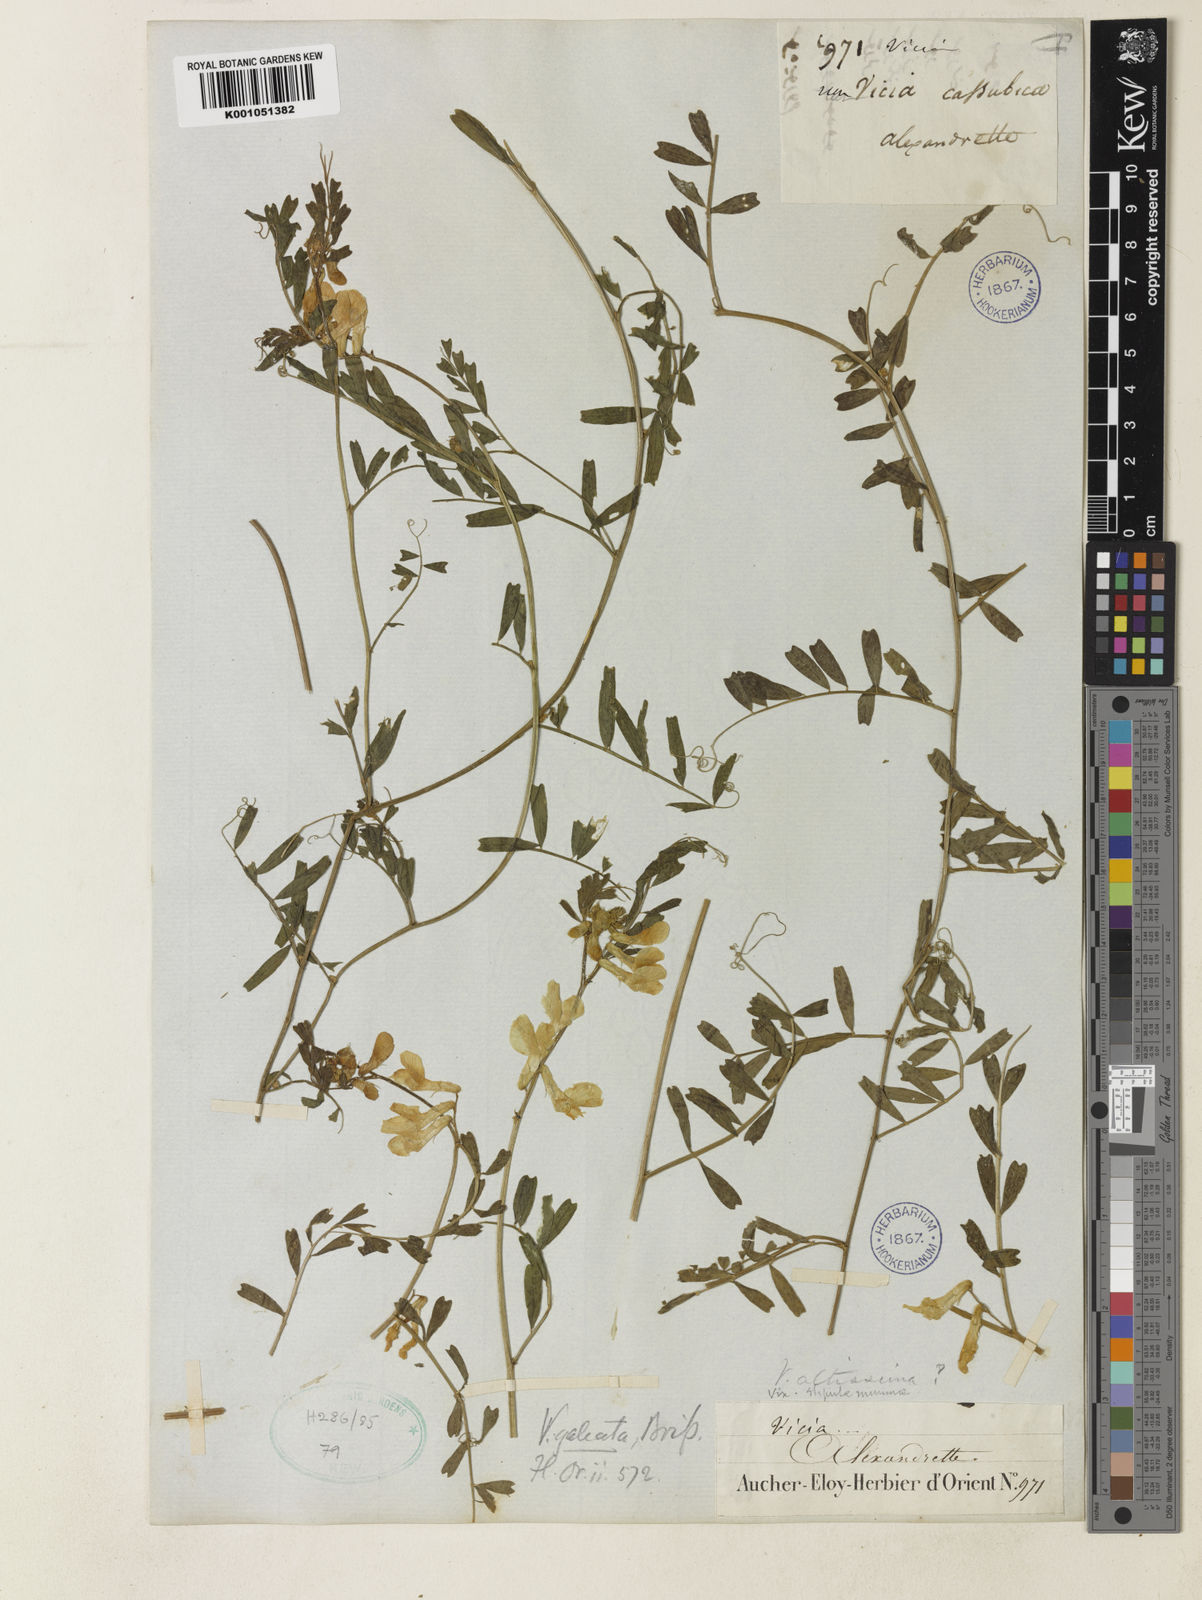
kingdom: Plantae
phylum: Tracheophyta
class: Magnoliopsida
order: Fabales
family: Fabaceae
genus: Vicia
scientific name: Vicia galeata
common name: Helmeted vetch
